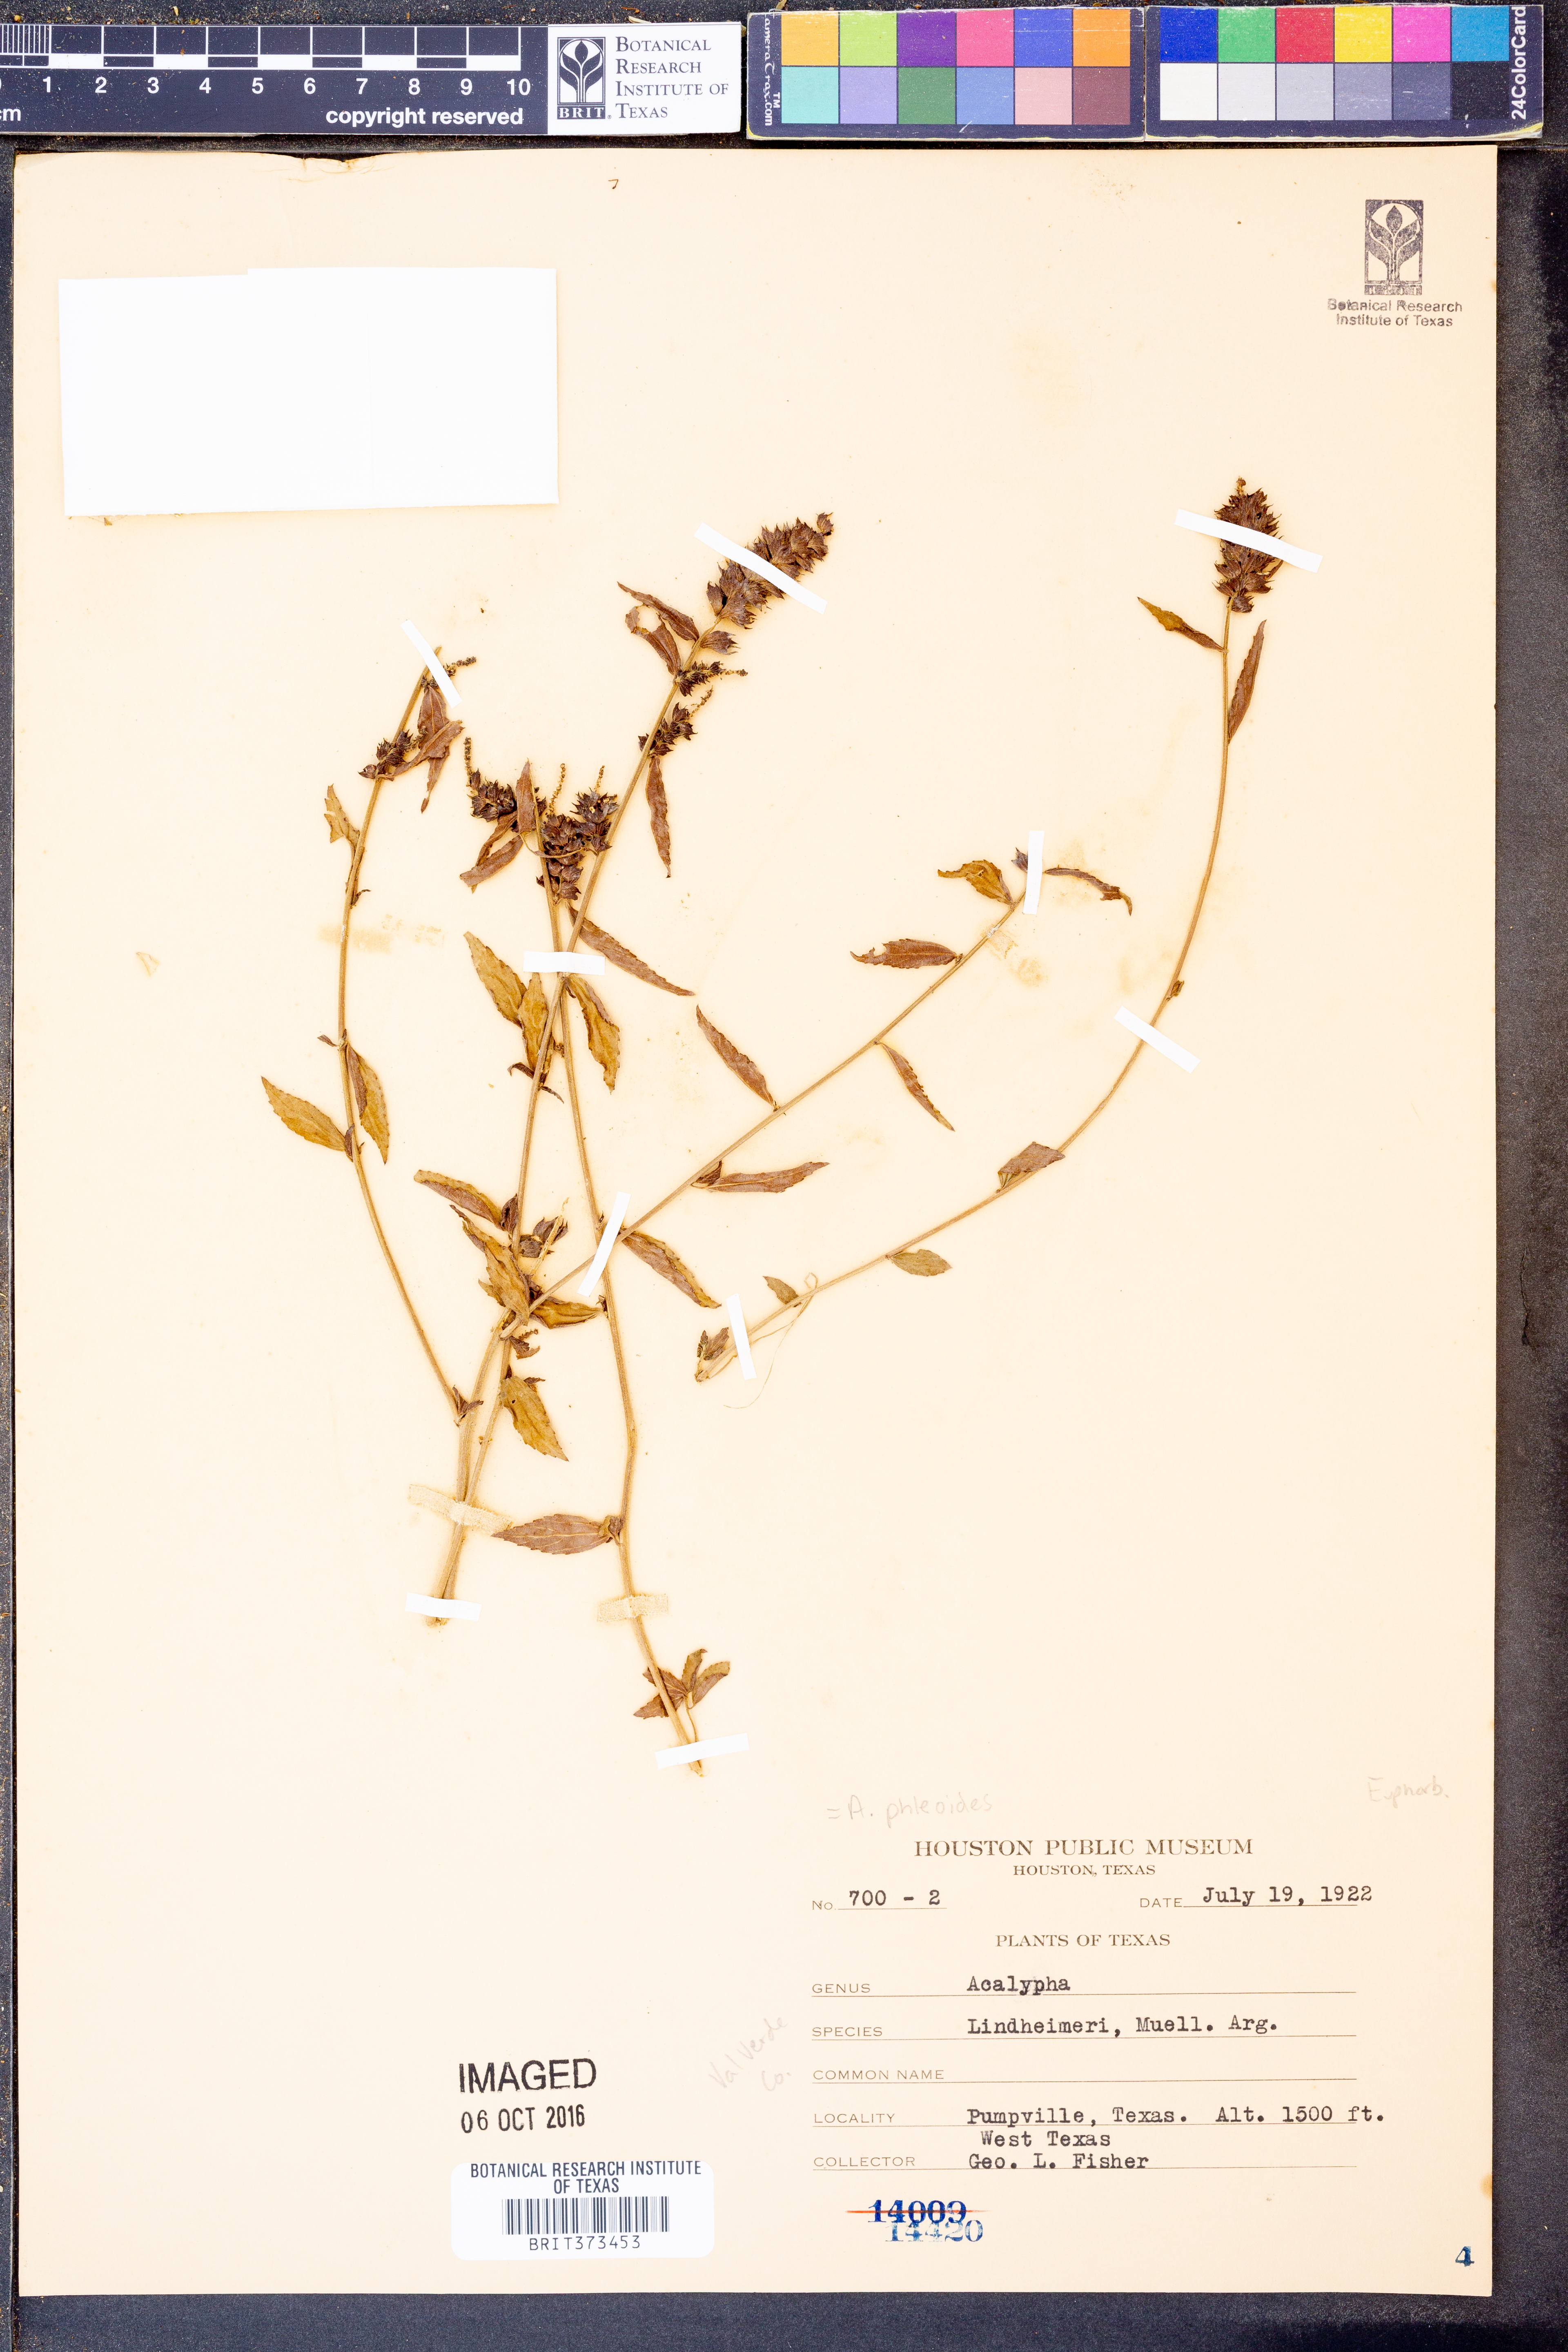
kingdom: Plantae
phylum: Tracheophyta
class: Magnoliopsida
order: Malpighiales
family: Euphorbiaceae
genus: Acalypha
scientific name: Acalypha phleoides
